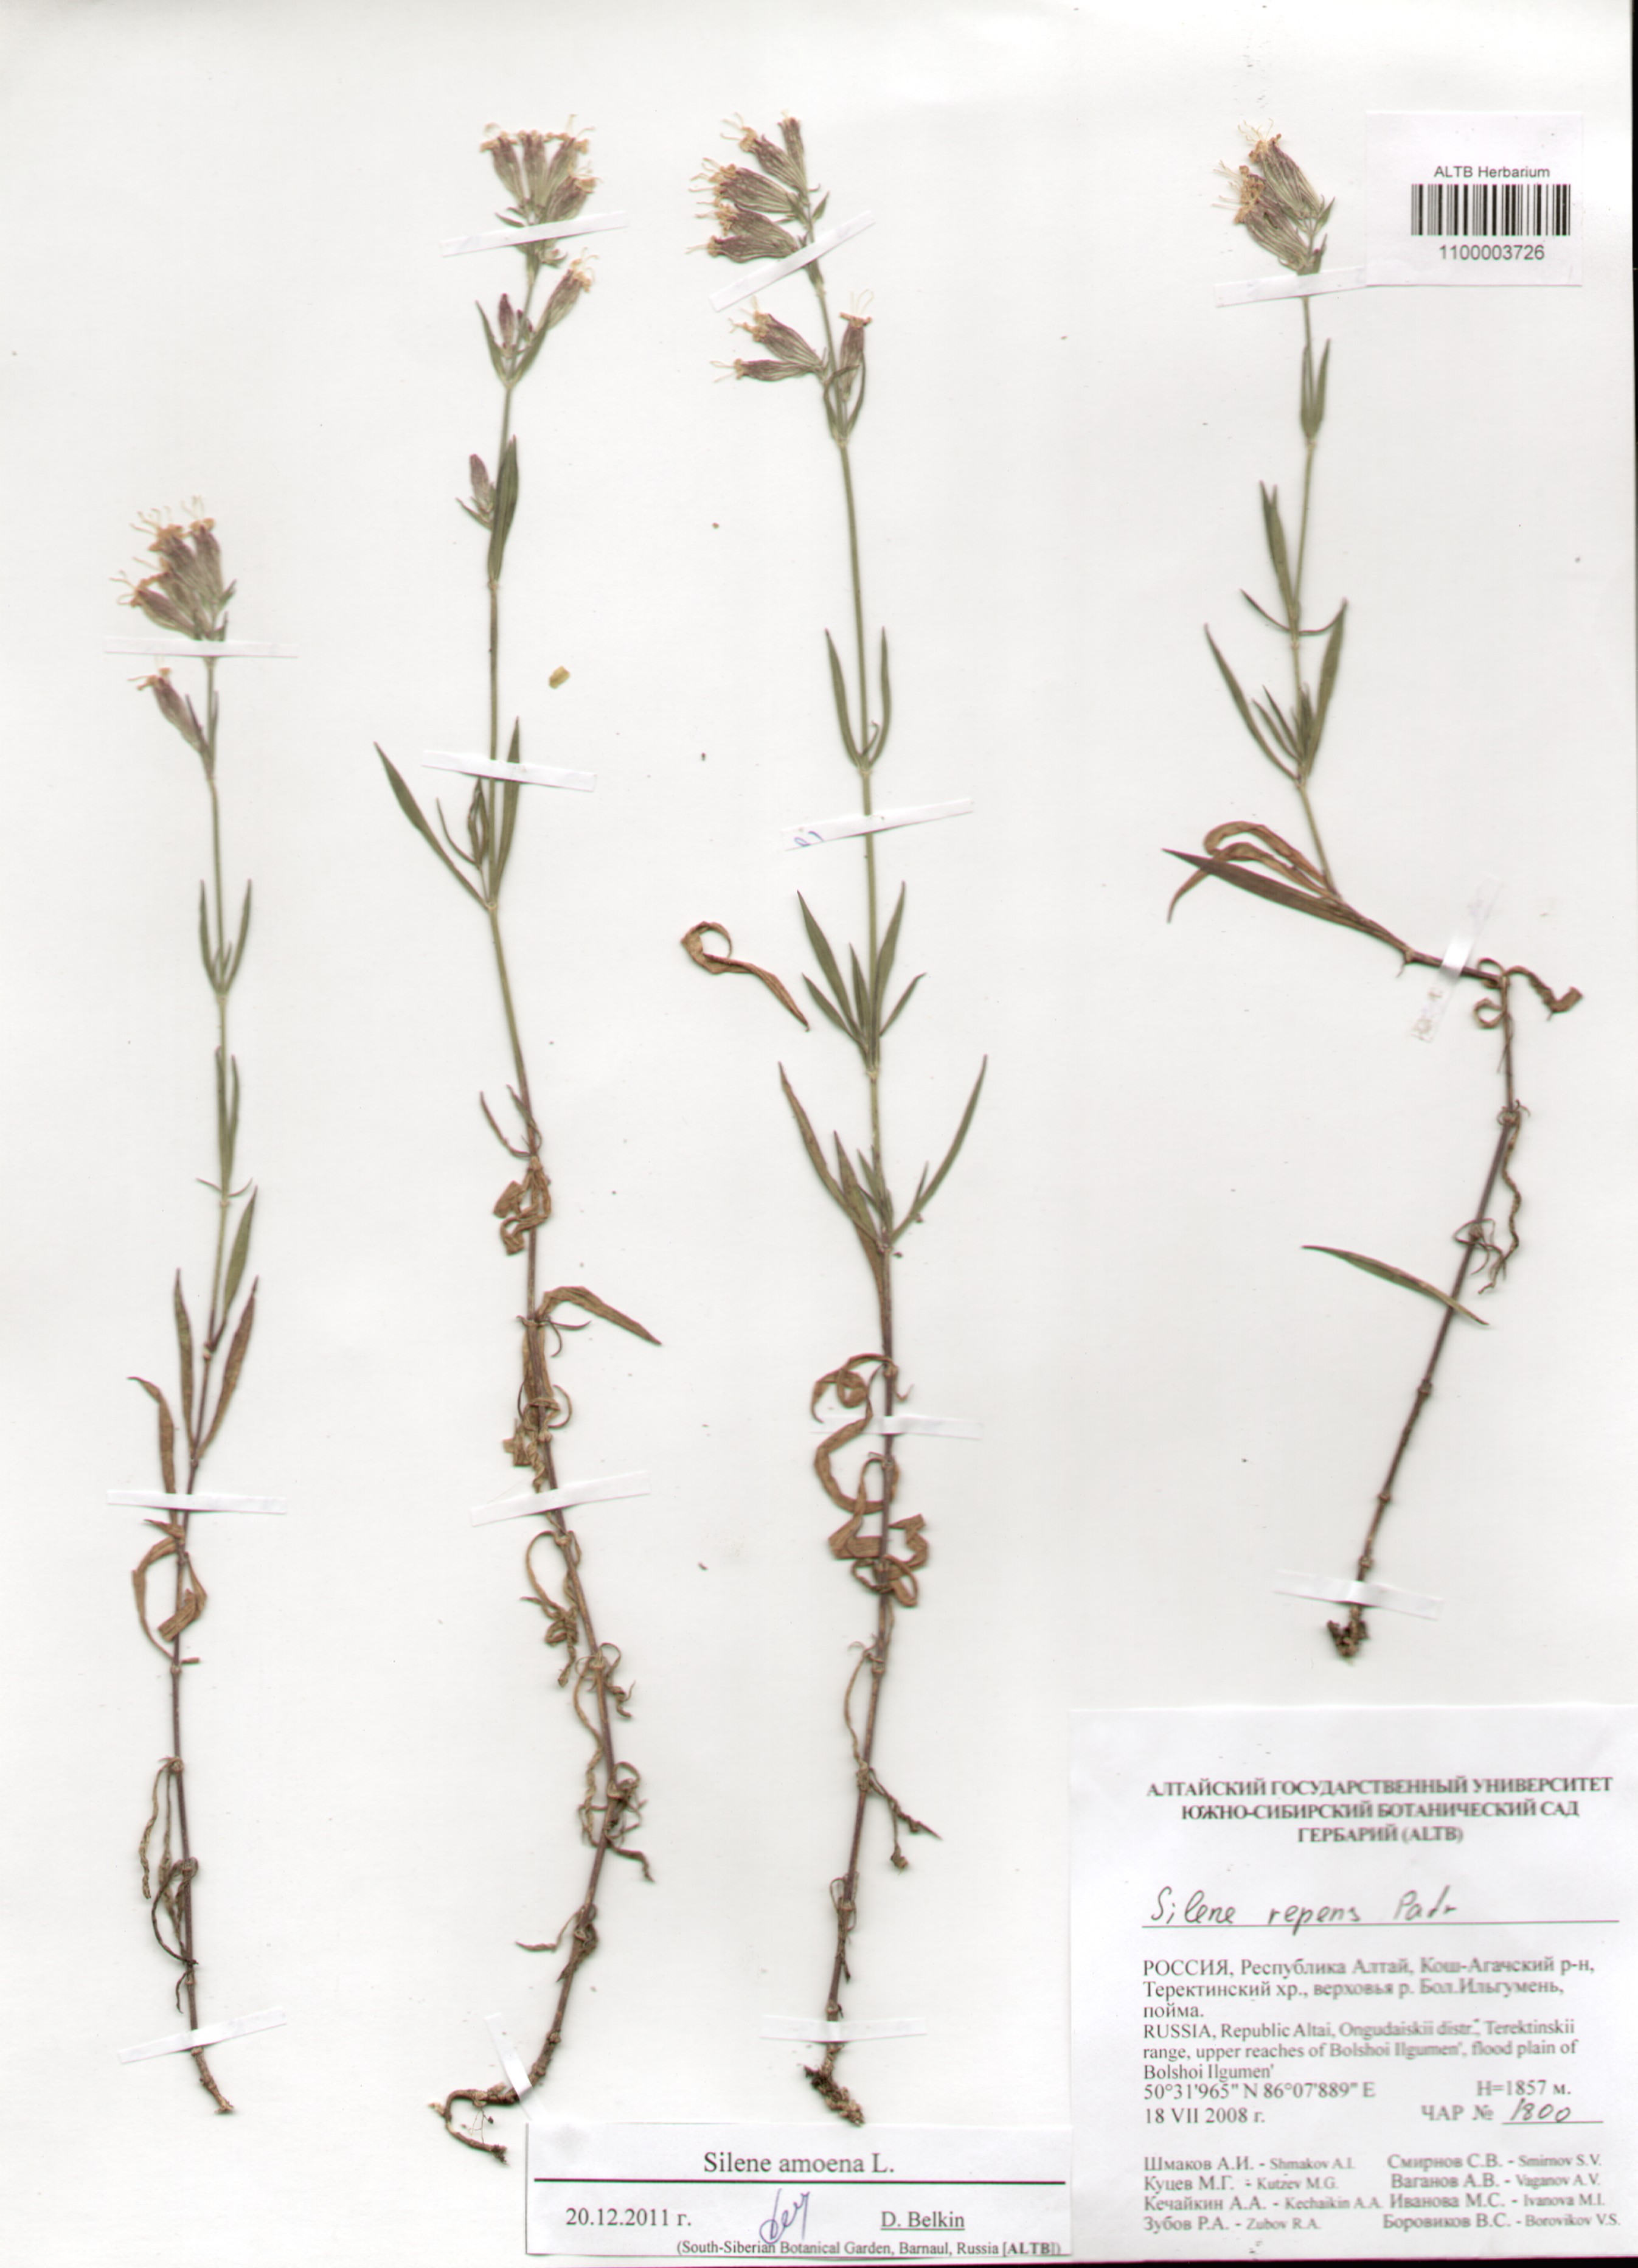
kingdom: Plantae
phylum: Tracheophyta
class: Magnoliopsida
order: Caryophyllales
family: Caryophyllaceae
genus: Silene
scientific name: Silene amoena
